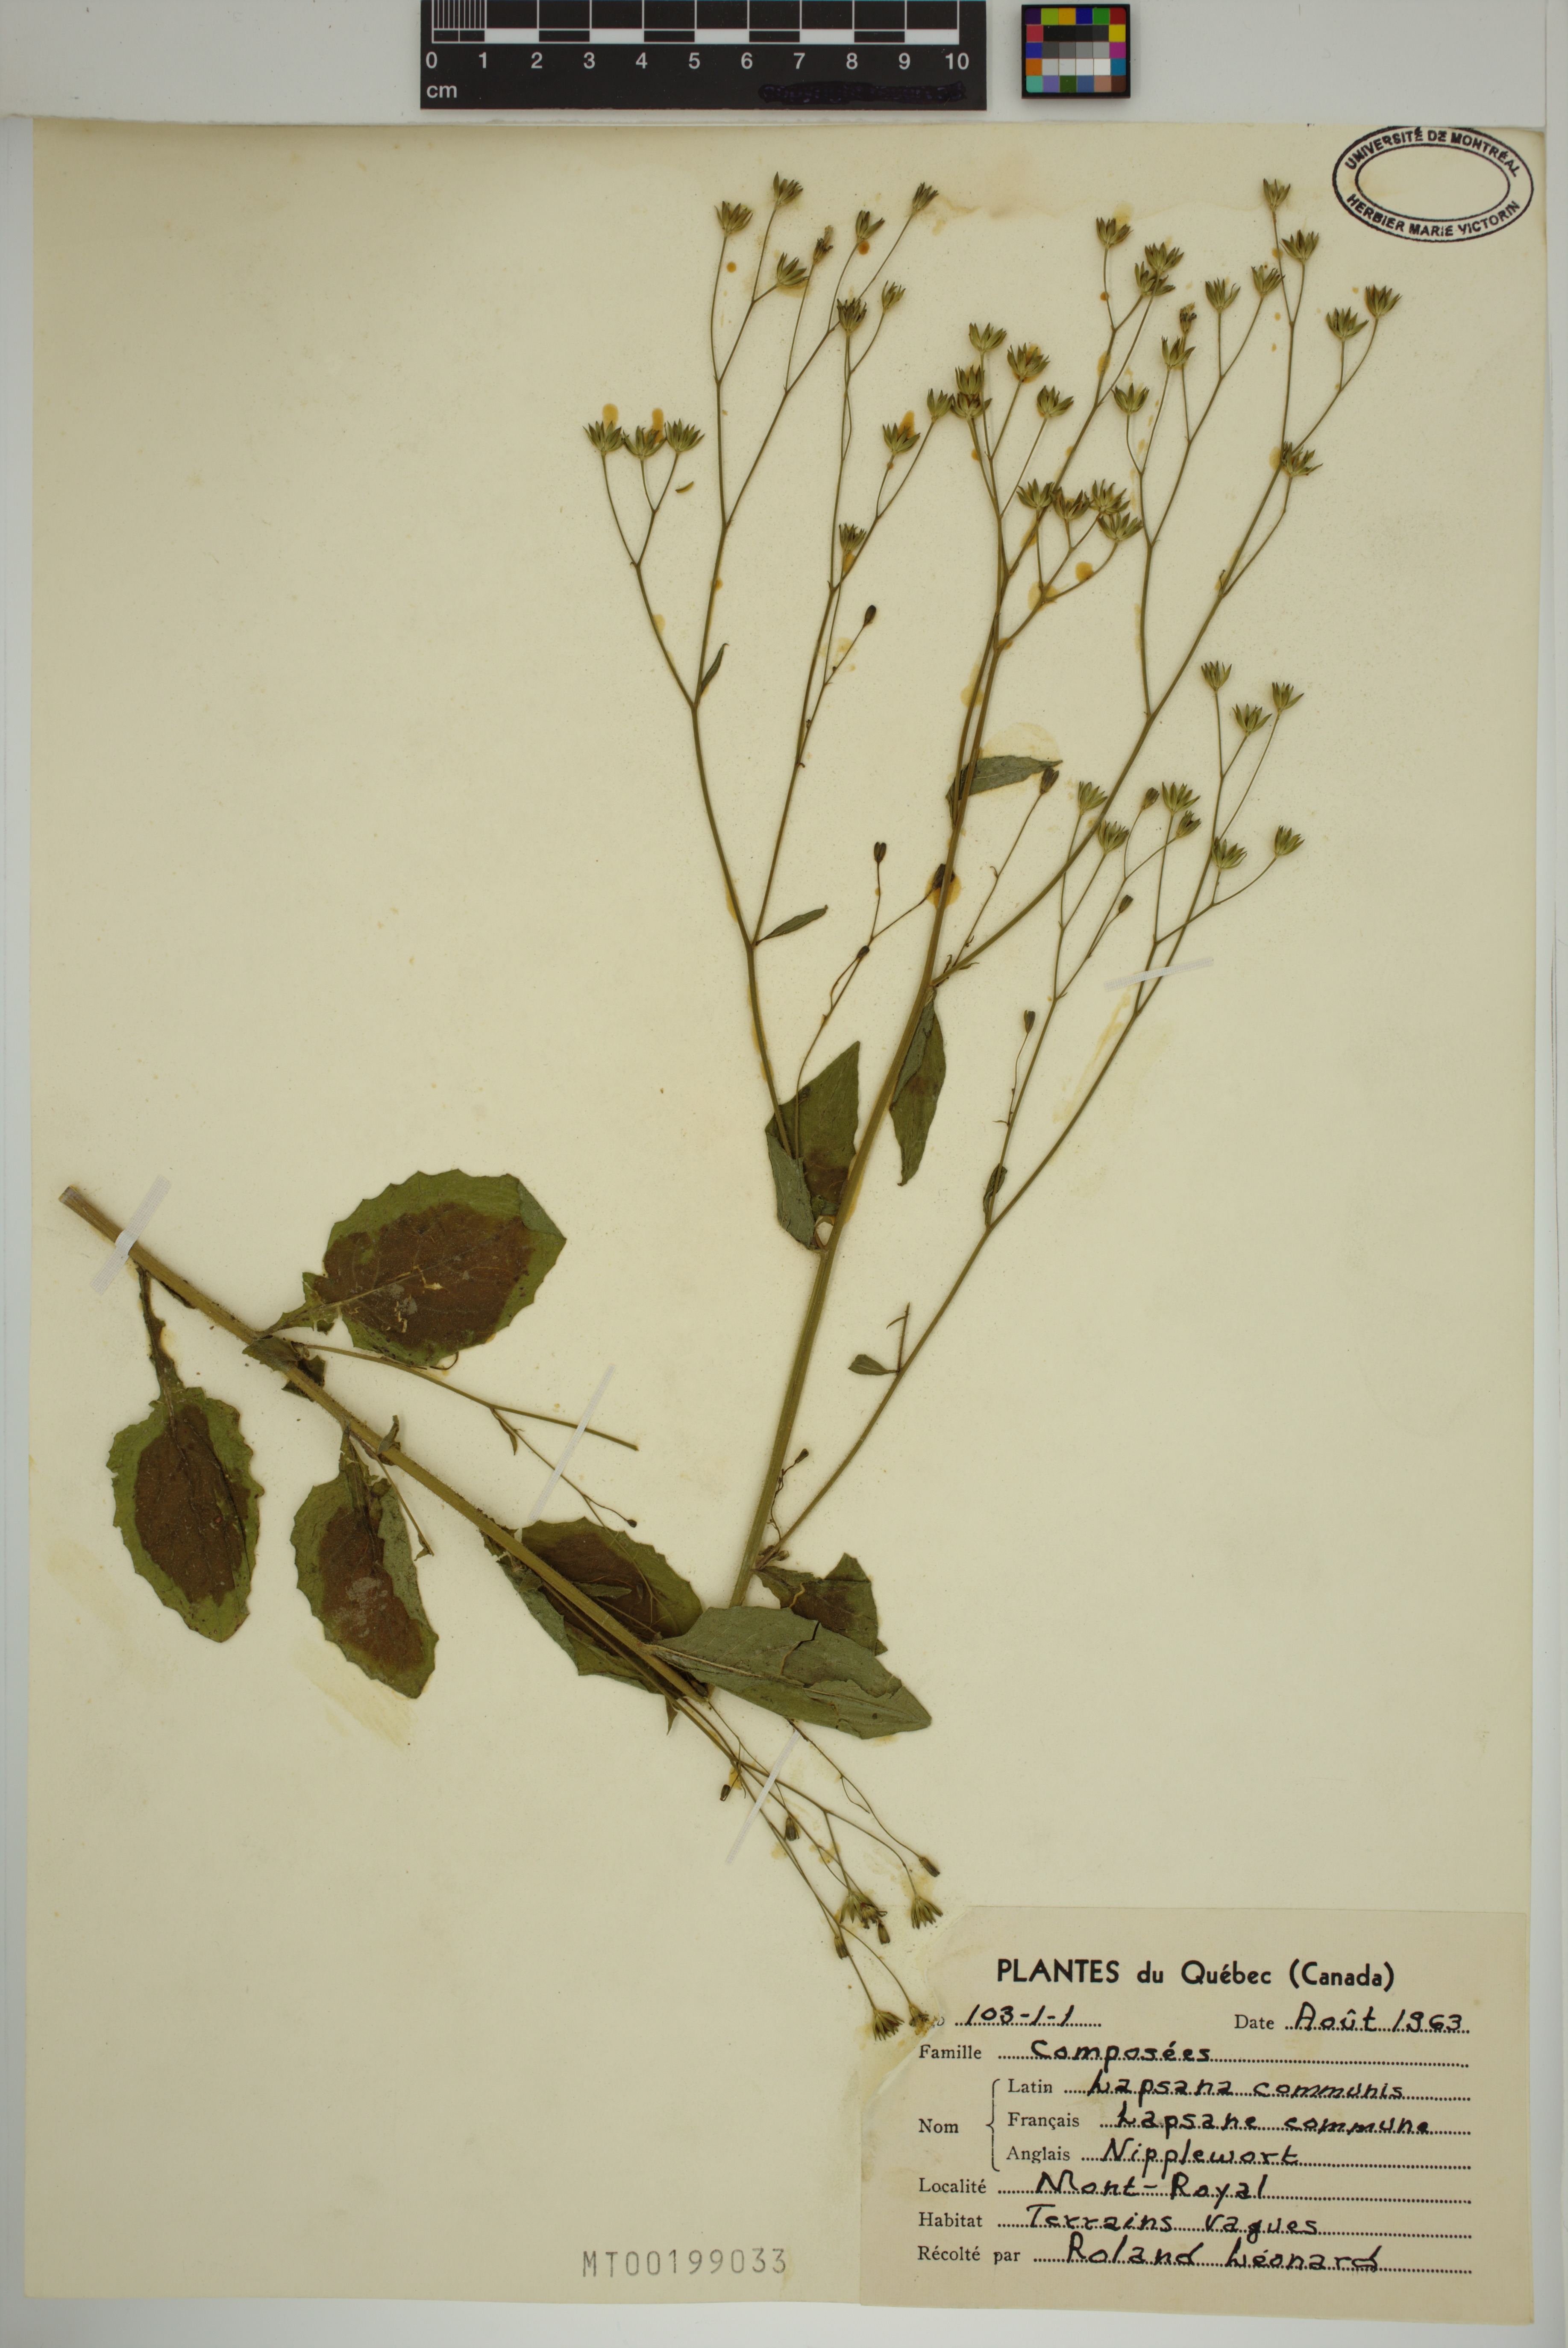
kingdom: Plantae
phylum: Tracheophyta
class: Magnoliopsida
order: Asterales
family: Asteraceae
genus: Lapsana
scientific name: Lapsana communis
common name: Nipplewort
